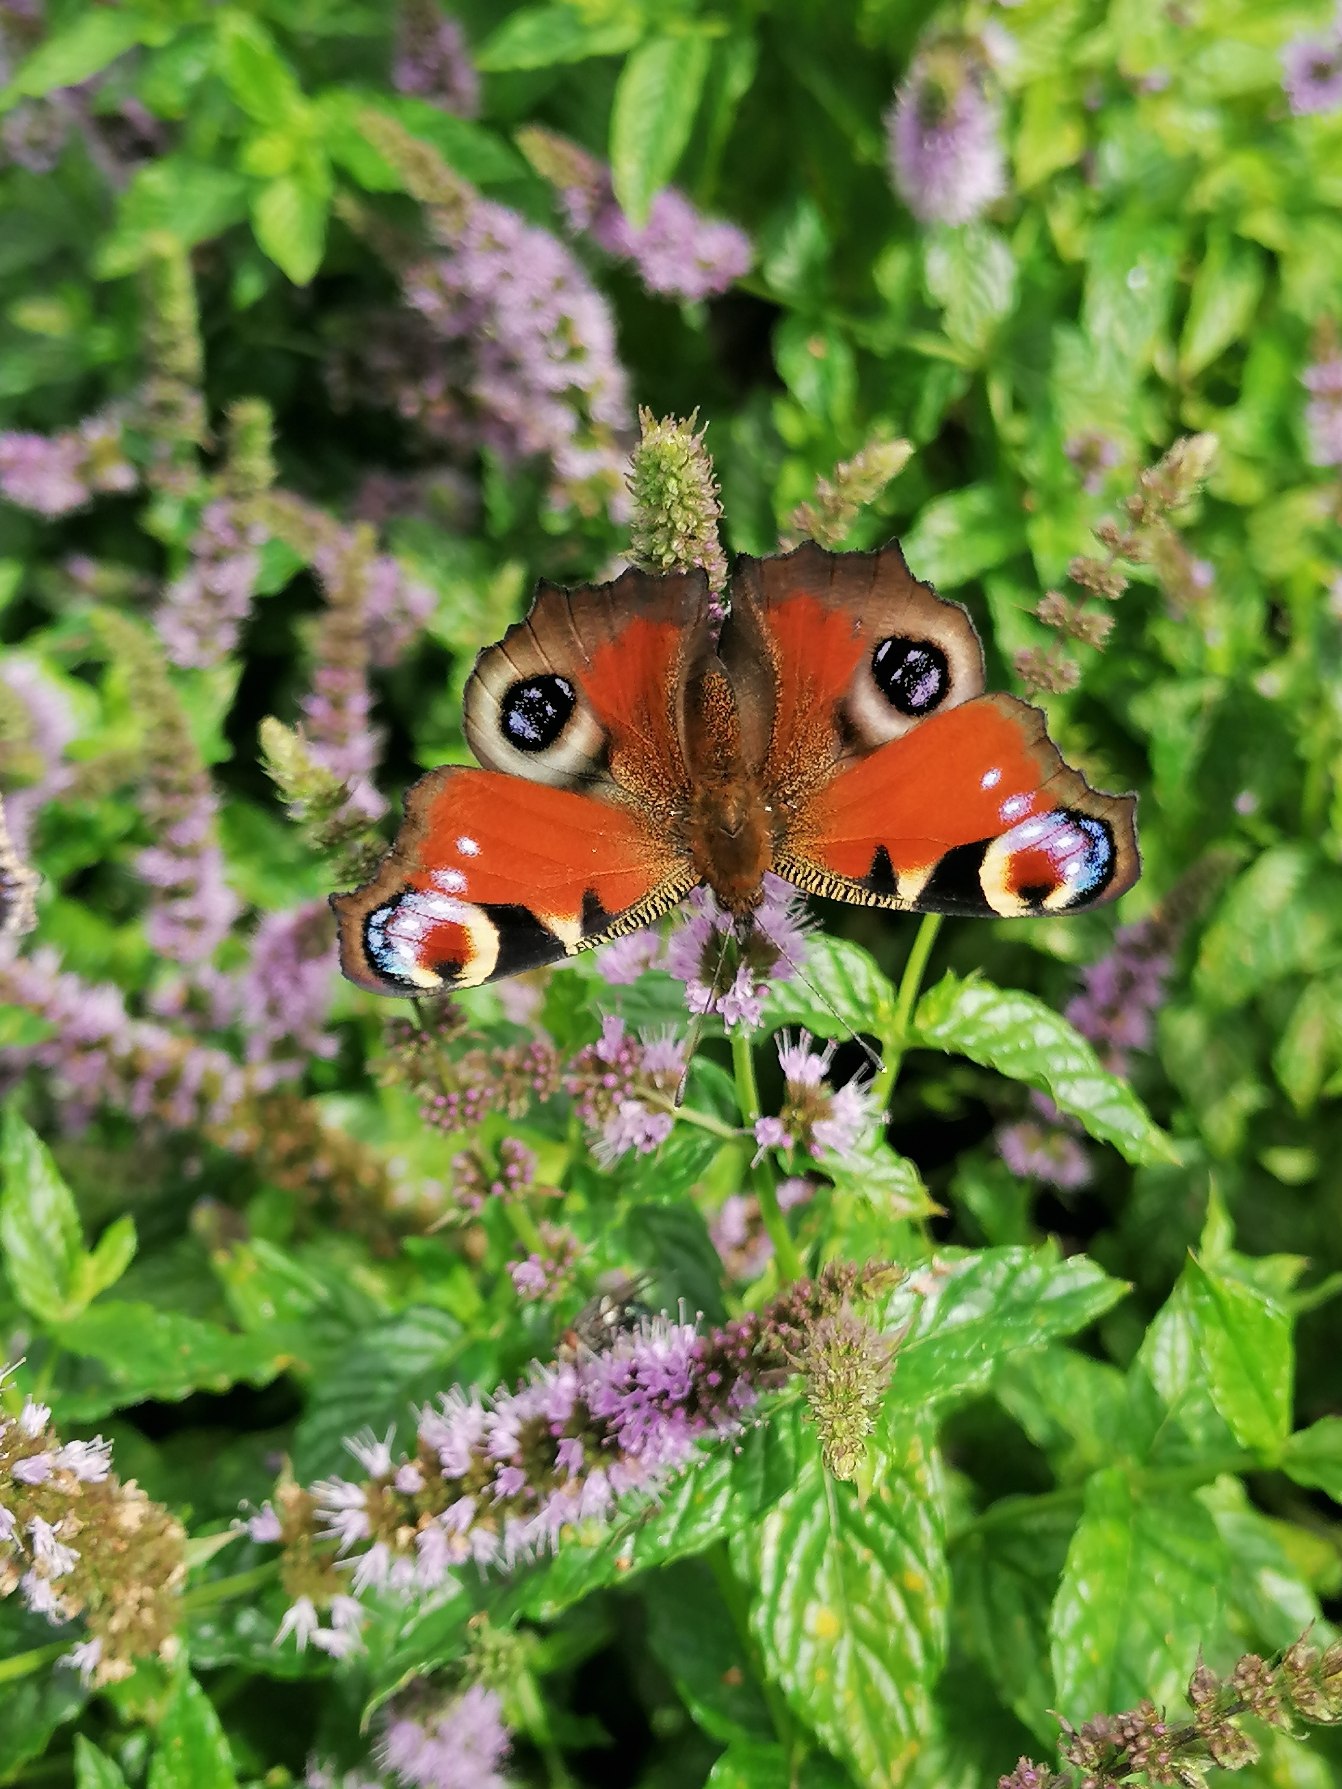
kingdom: Animalia
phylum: Arthropoda
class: Insecta
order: Lepidoptera
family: Nymphalidae
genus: Aglais
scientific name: Aglais io
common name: Dagpåfugleøje
